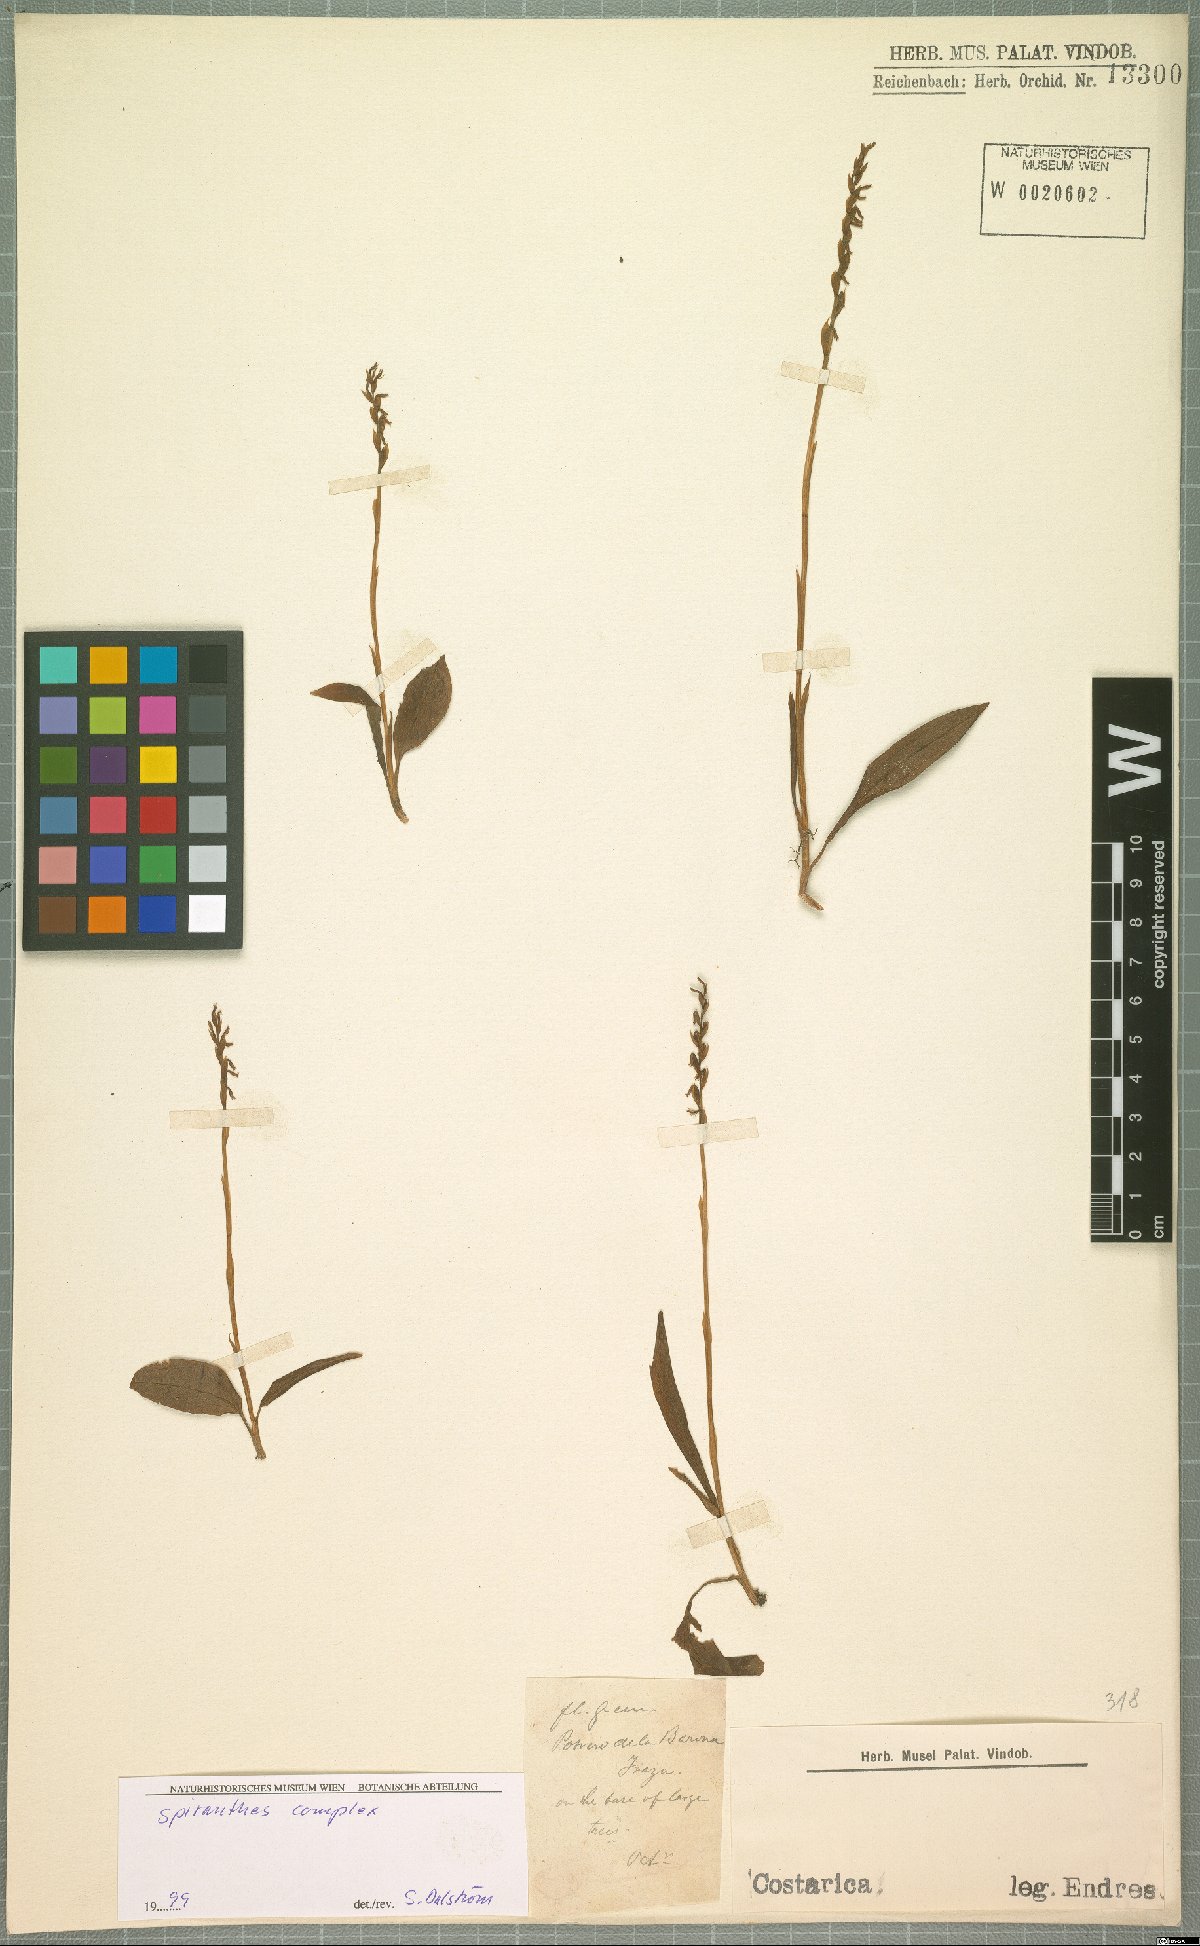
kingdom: Plantae
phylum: Tracheophyta
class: Liliopsida
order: Asparagales
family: Orchidaceae
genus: Spiranthes
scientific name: Spiranthes
